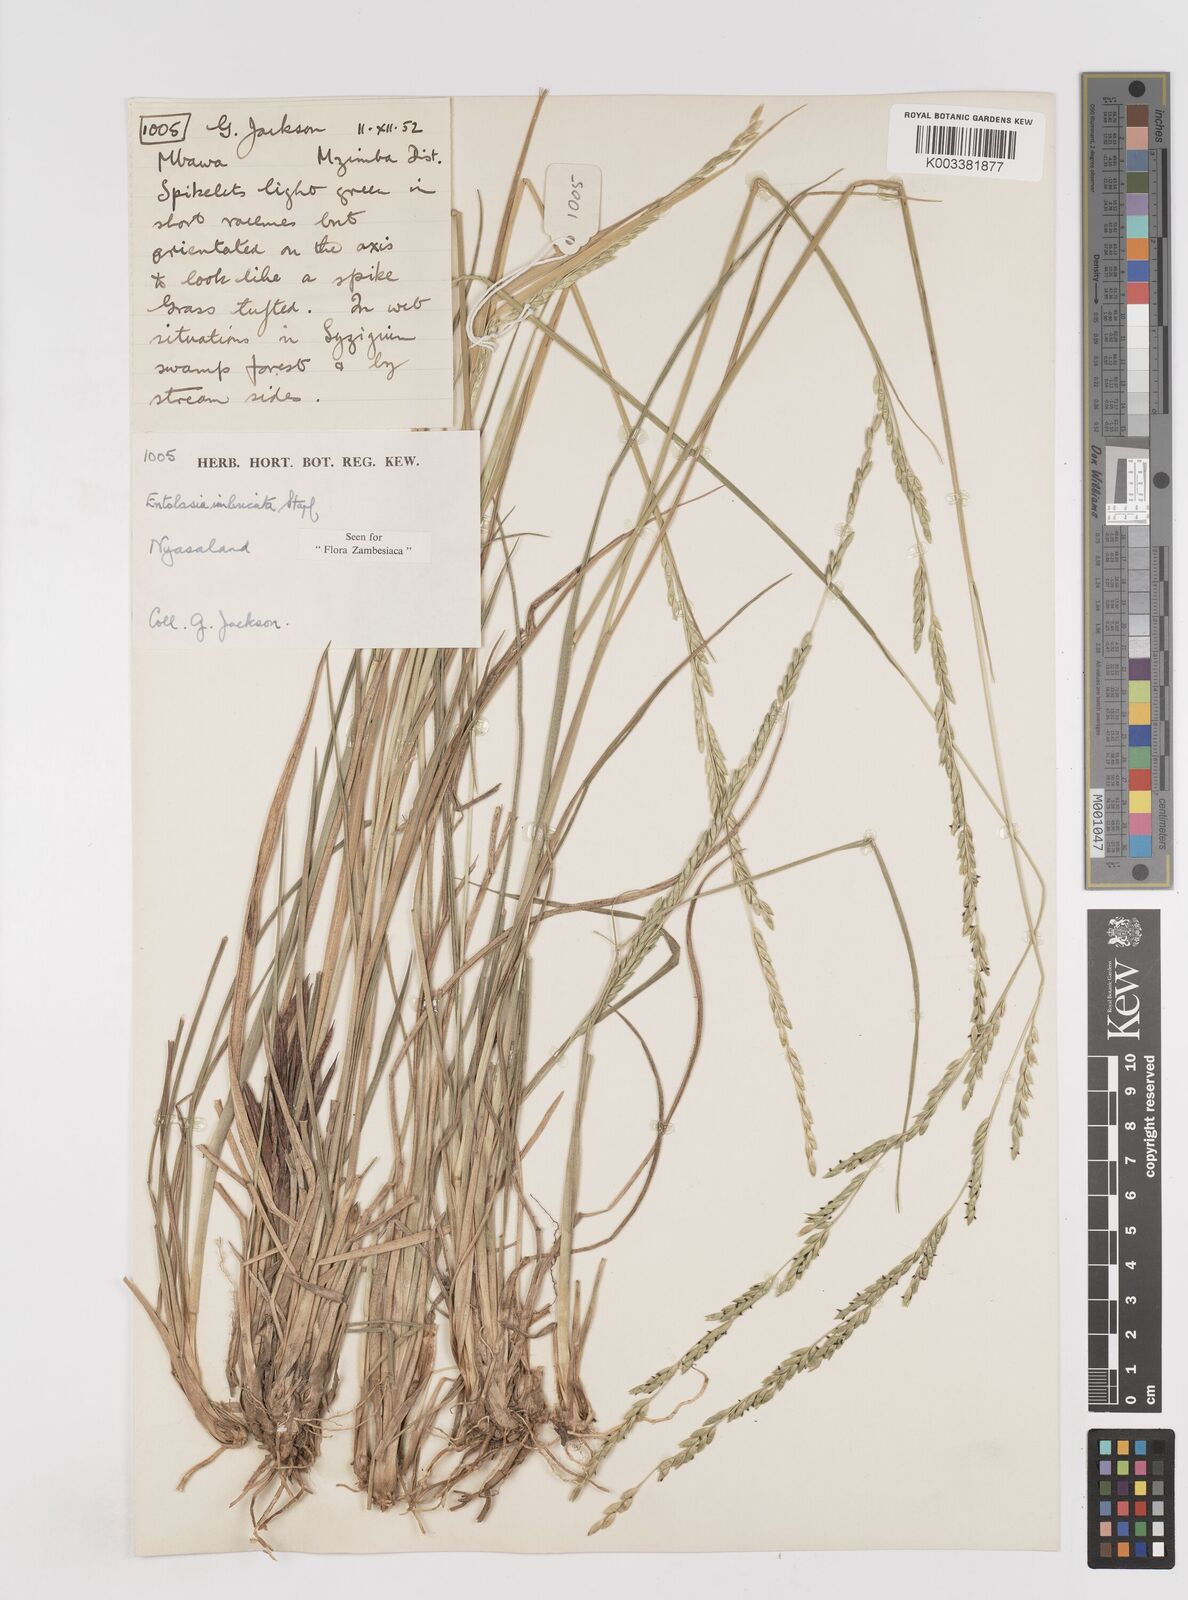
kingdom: Plantae
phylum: Tracheophyta
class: Liliopsida
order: Poales
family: Poaceae
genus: Entolasia
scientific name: Entolasia imbricata
